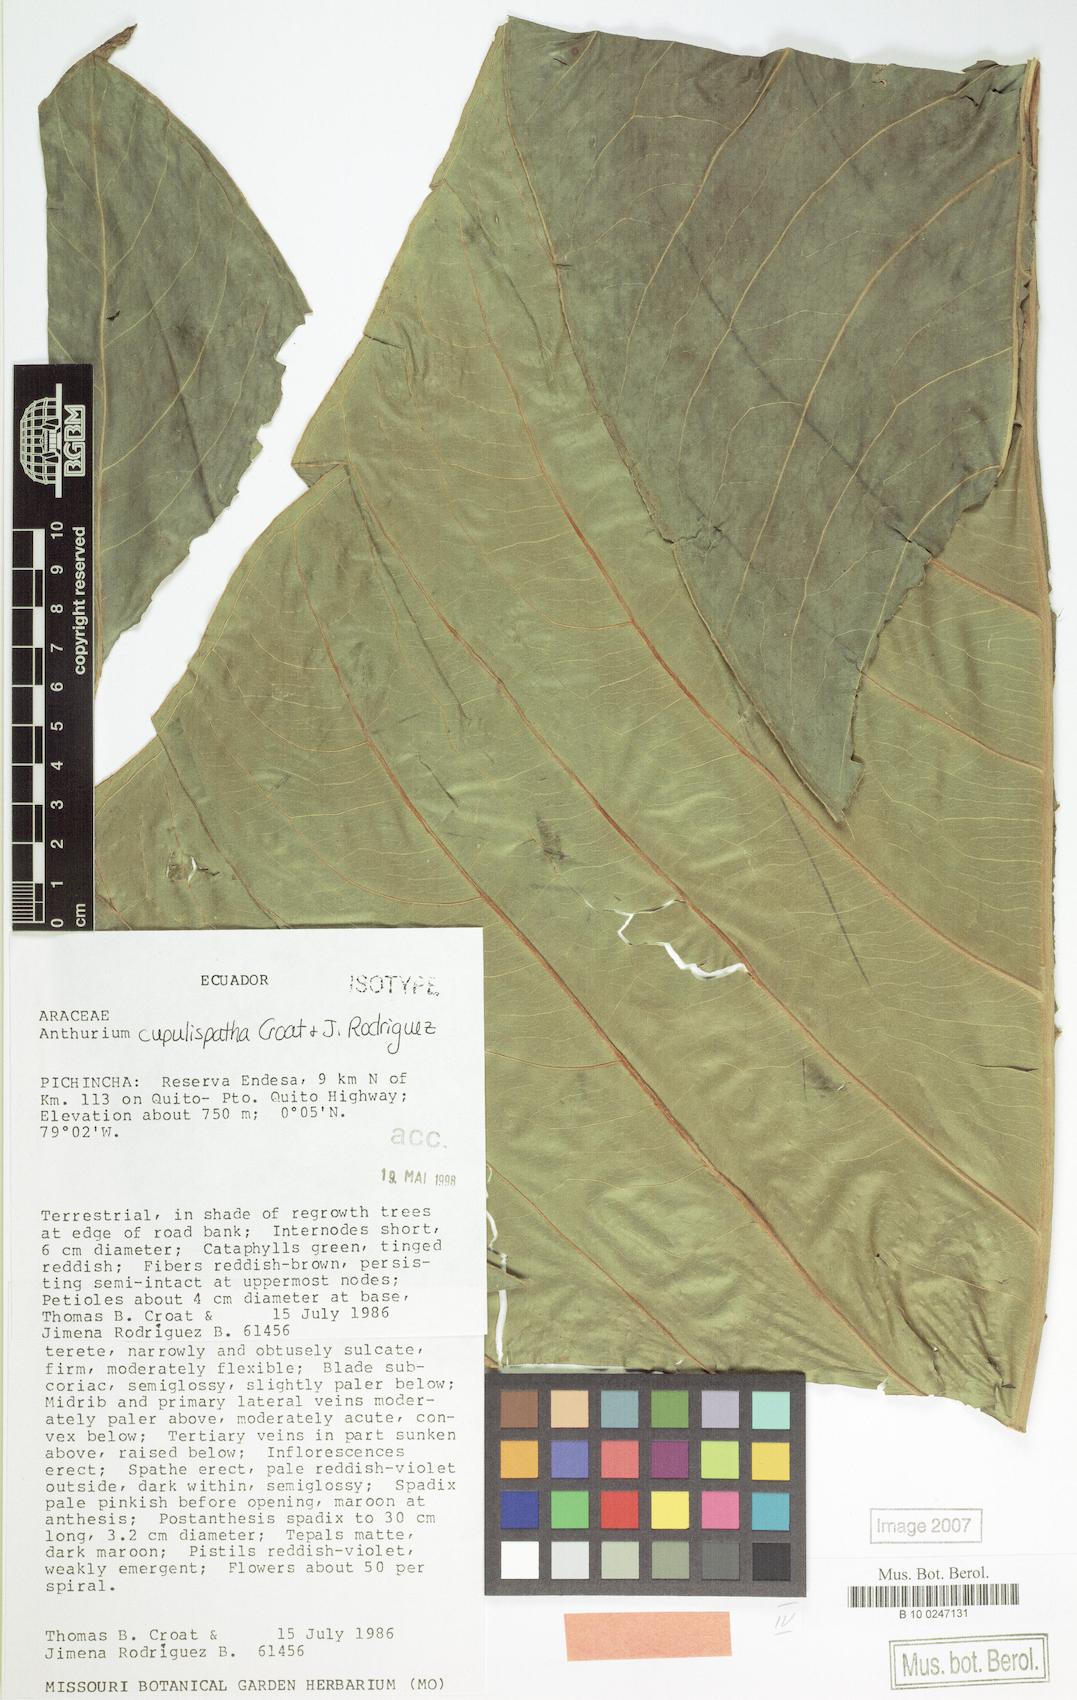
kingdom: Plantae
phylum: Tracheophyta
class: Liliopsida
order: Alismatales
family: Araceae
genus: Anthurium
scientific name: Anthurium cupulispathum
